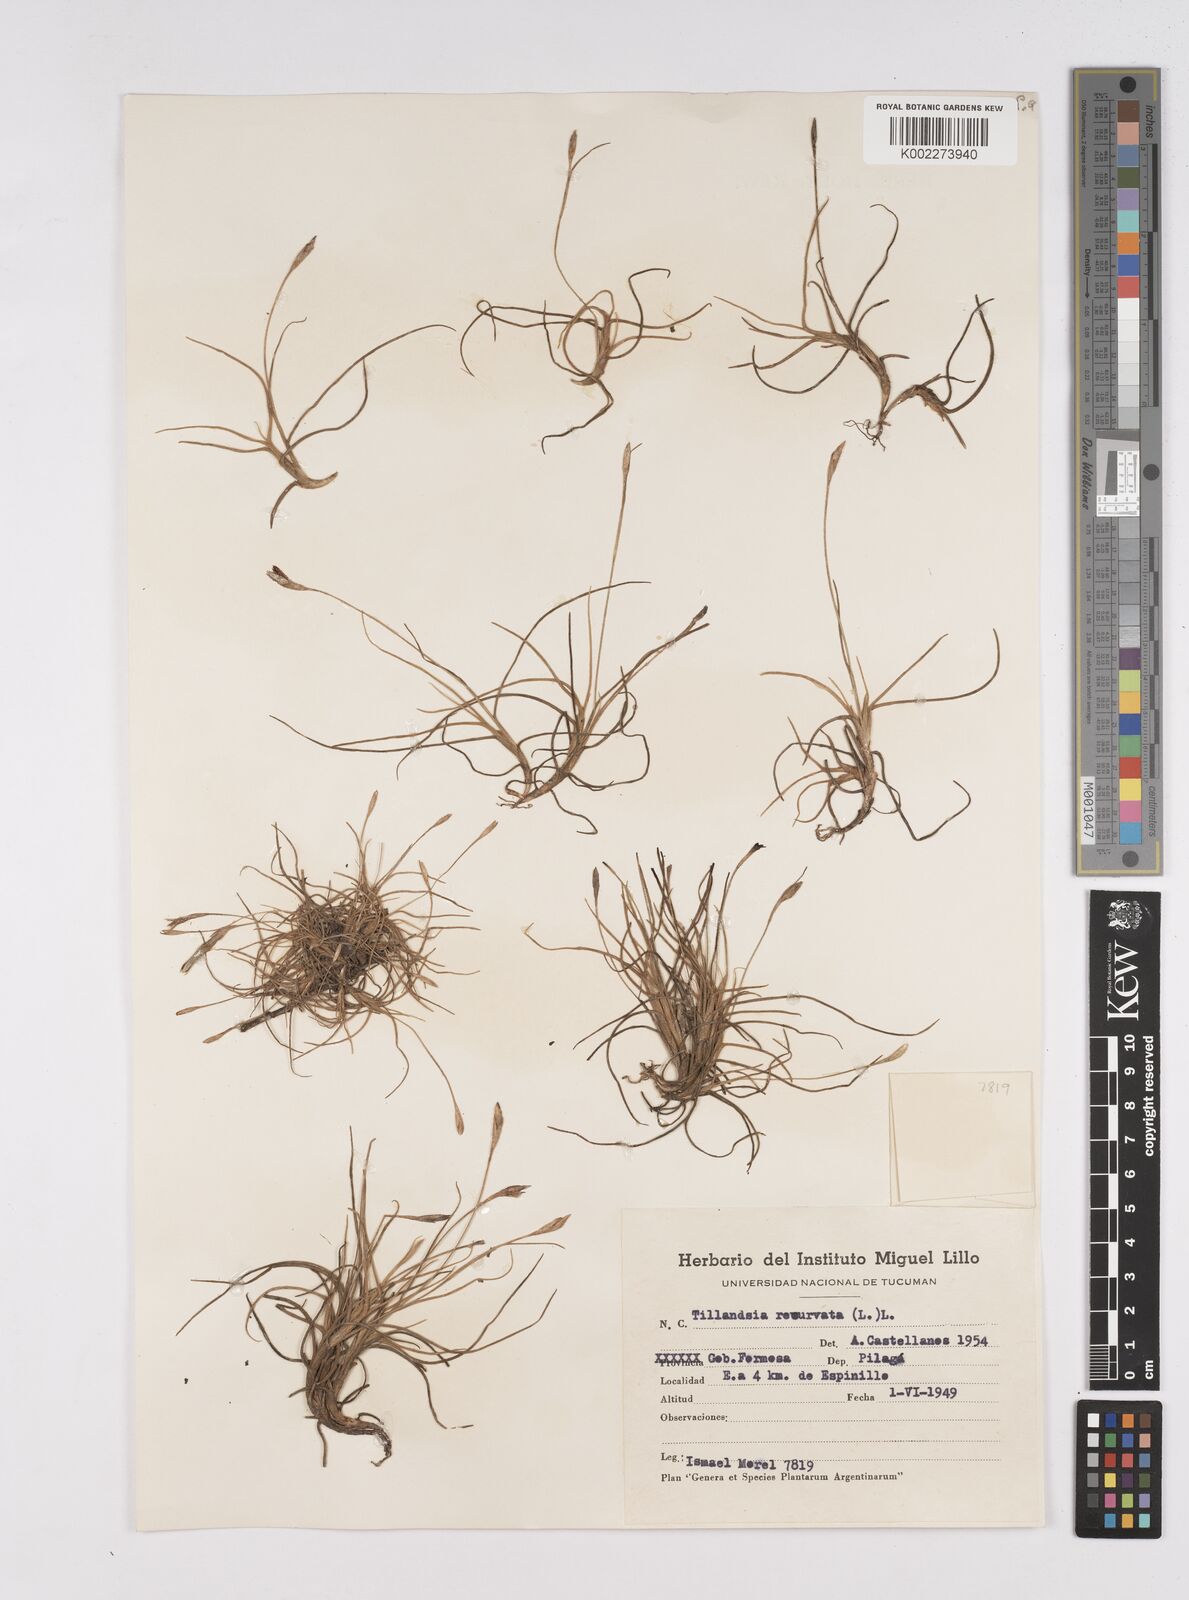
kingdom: Plantae
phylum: Tracheophyta
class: Liliopsida
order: Poales
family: Bromeliaceae
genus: Tillandsia
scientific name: Tillandsia recurvata
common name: Small ballmoss
